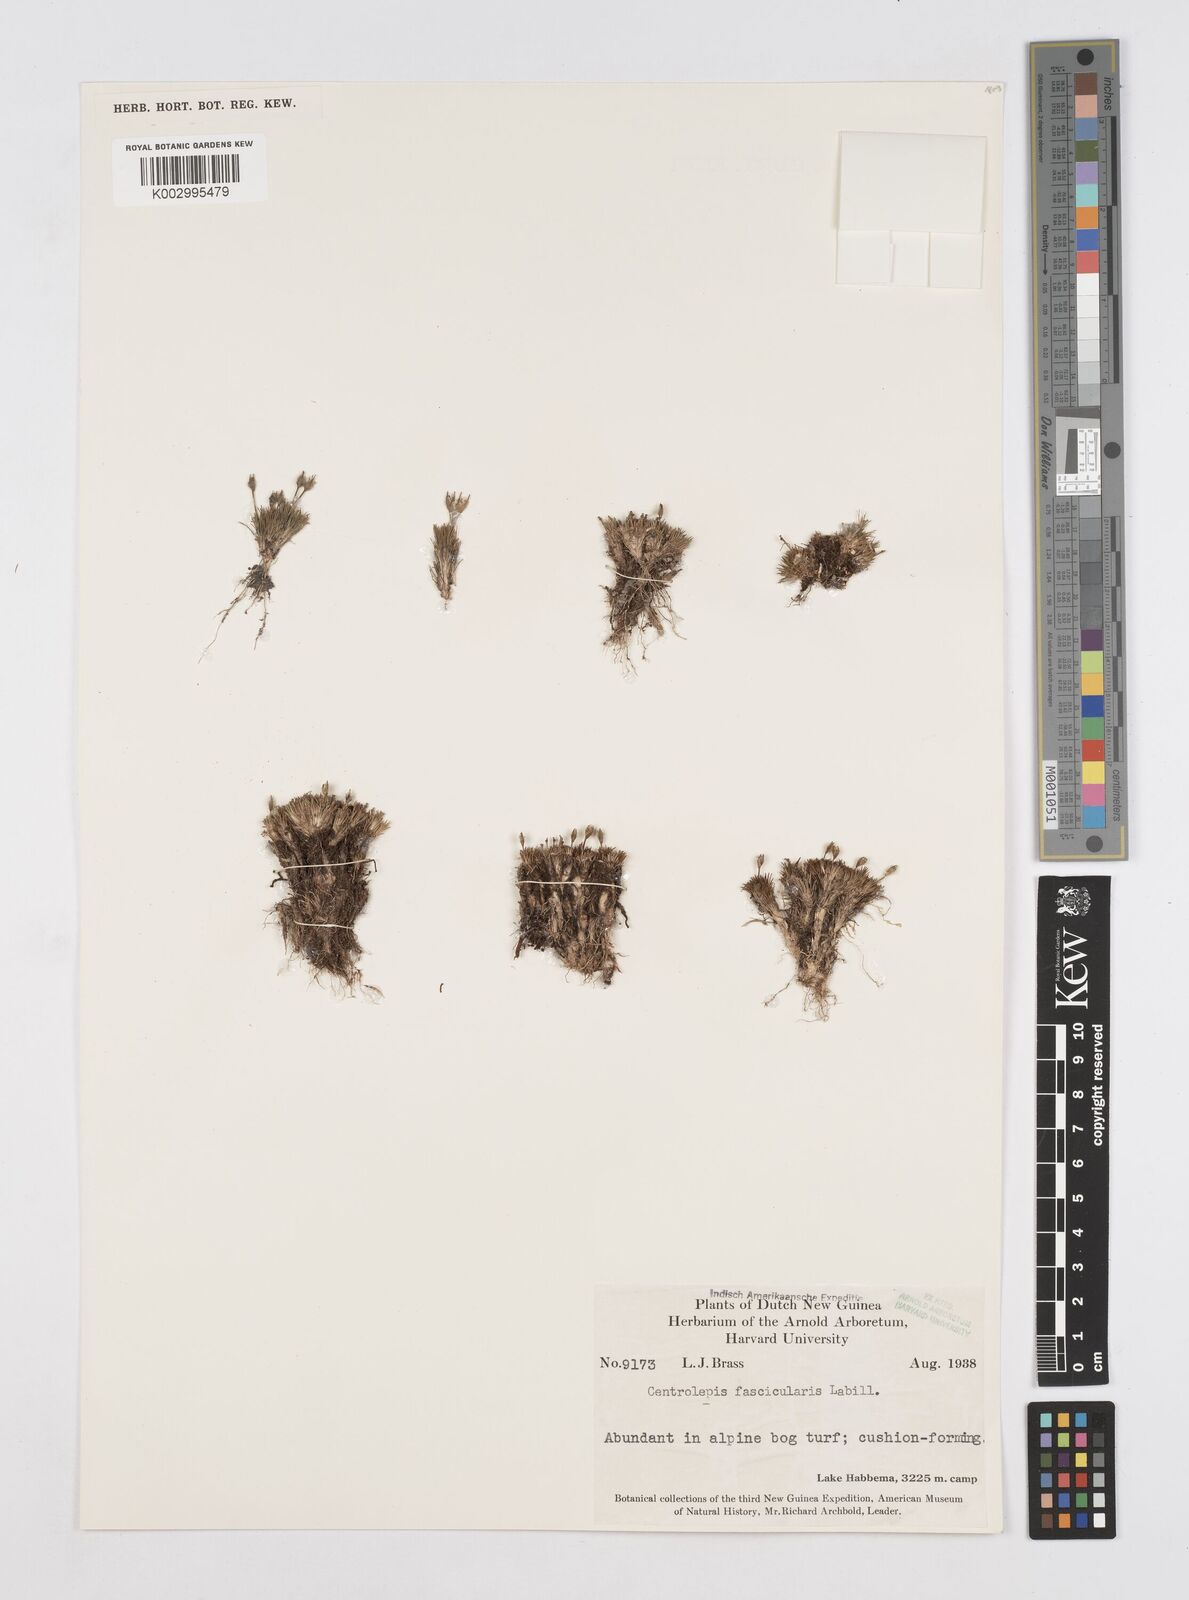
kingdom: Plantae
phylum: Tracheophyta
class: Liliopsida
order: Poales
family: Restionaceae
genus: Centrolepis
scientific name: Centrolepis fascicularis
